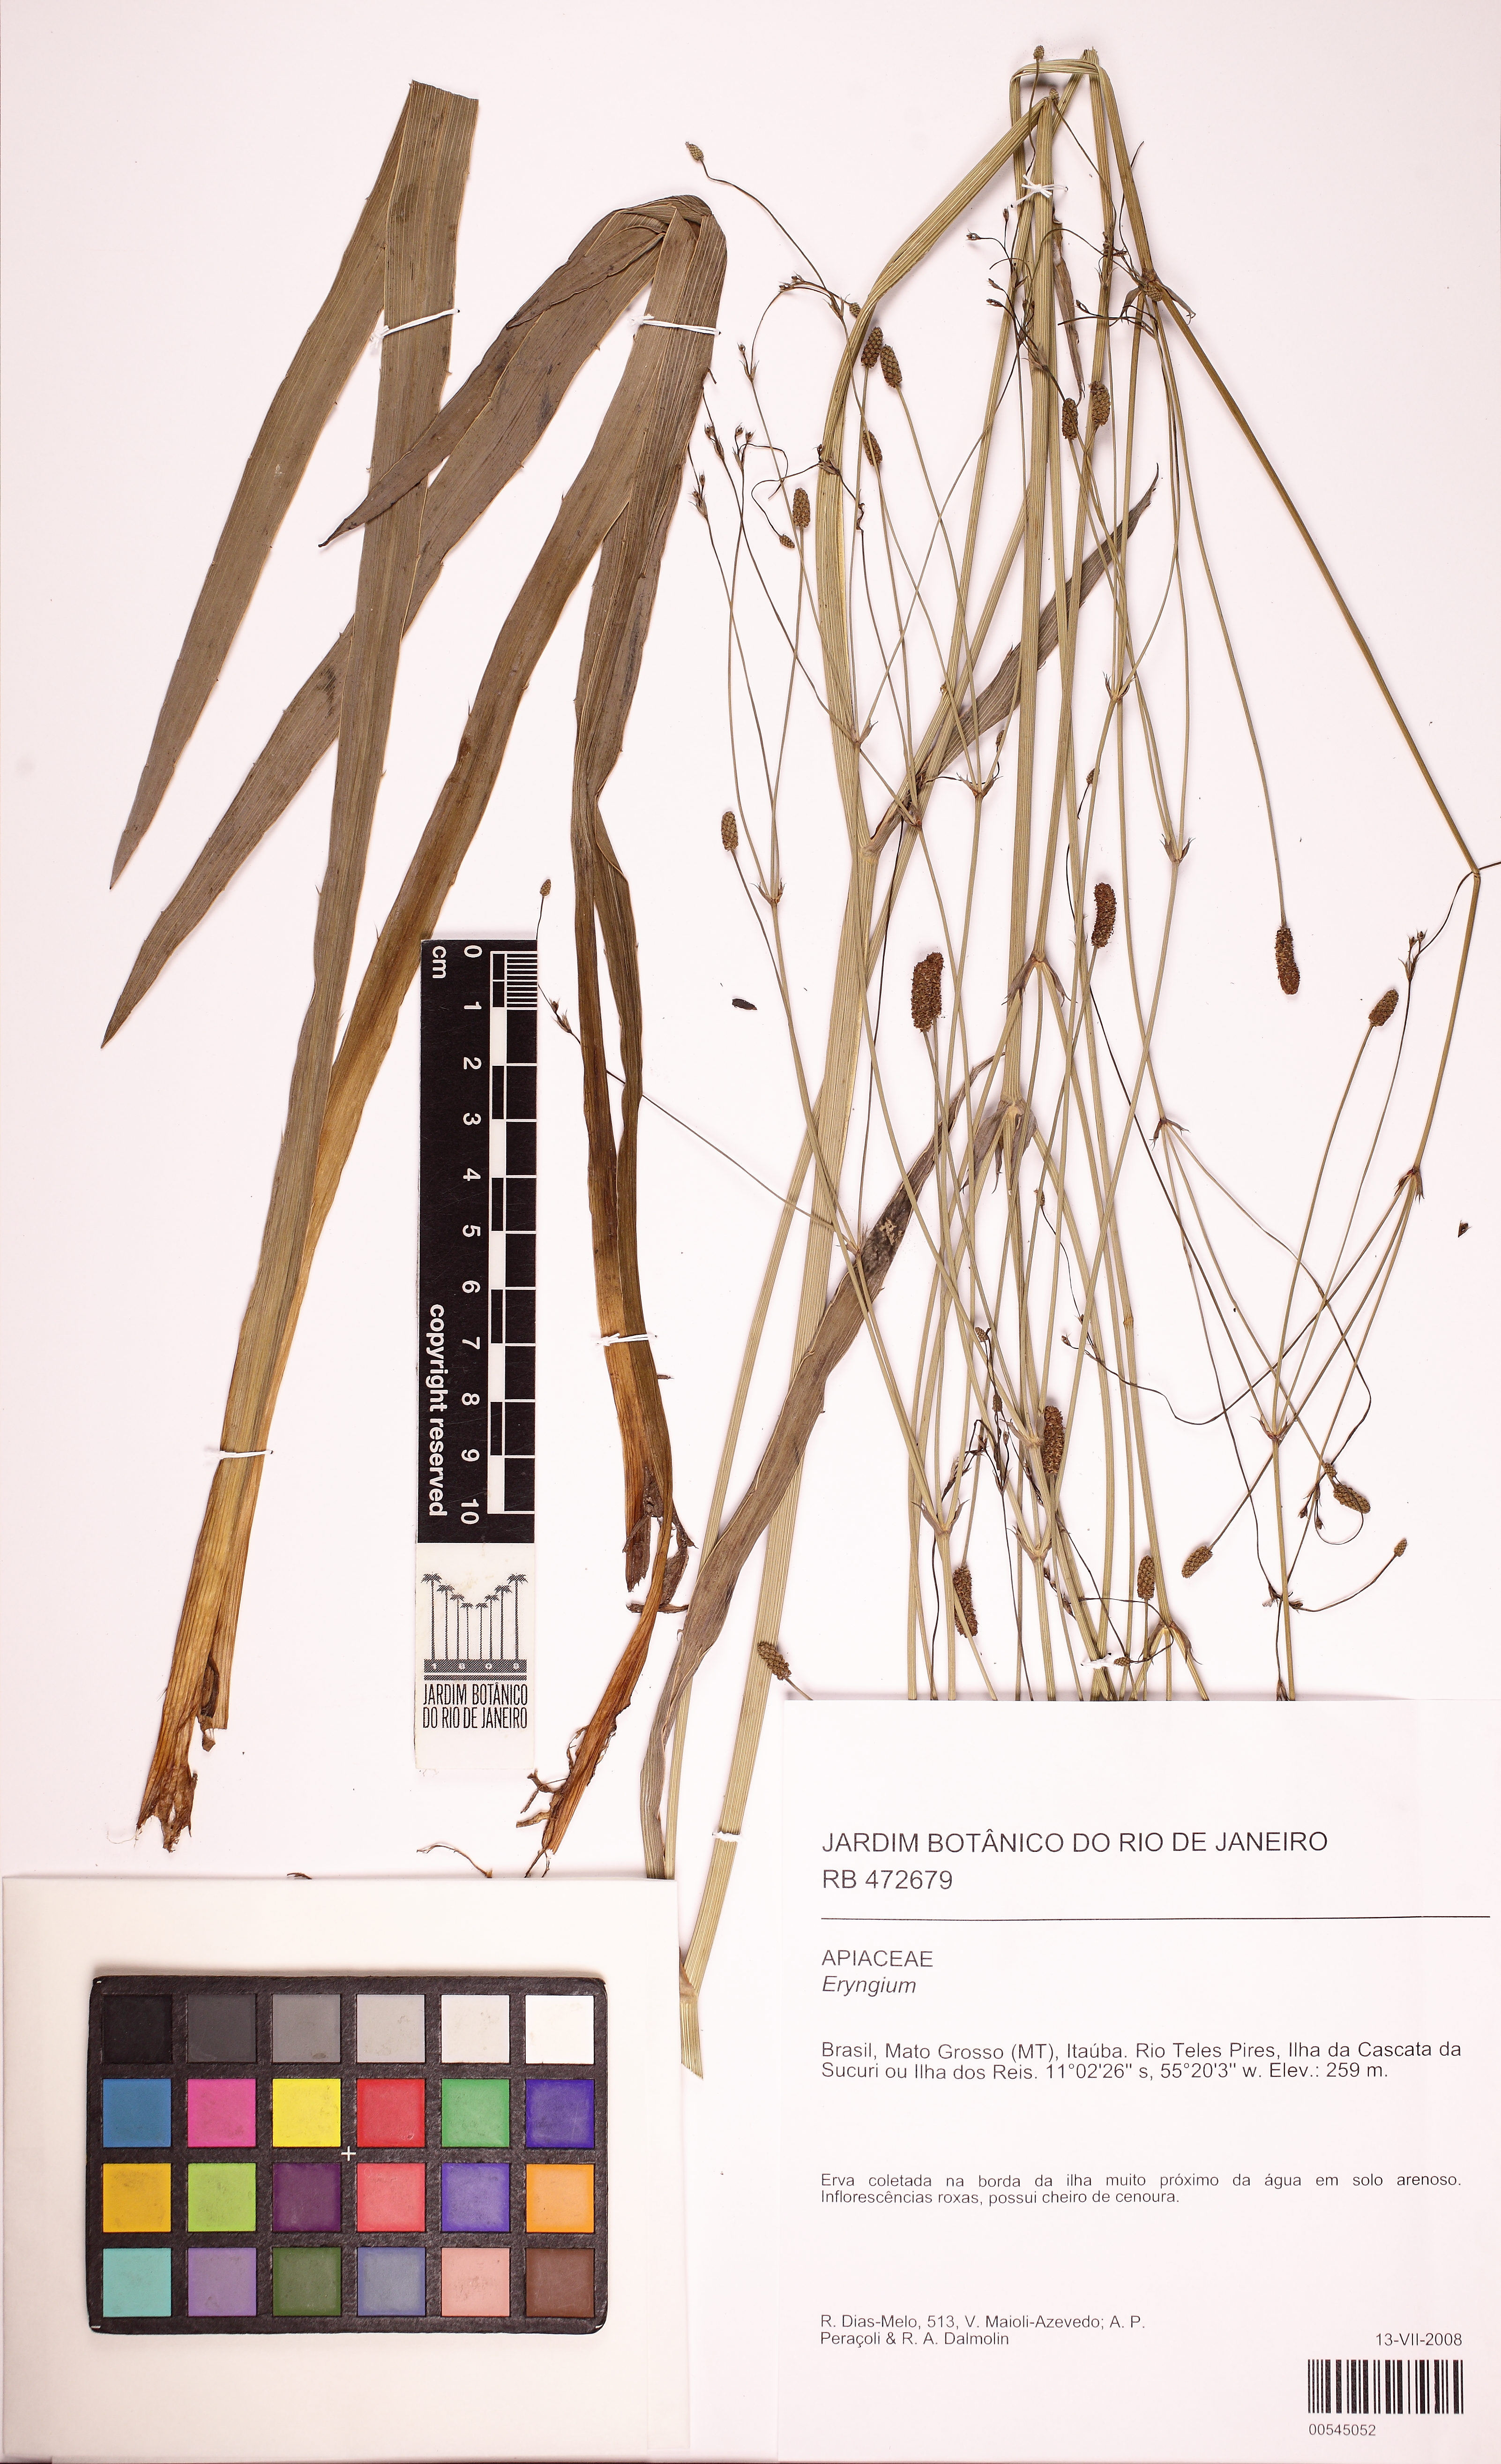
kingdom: Plantae
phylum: Tracheophyta
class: Magnoliopsida
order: Apiales
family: Apiaceae
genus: Eryngium
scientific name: Eryngium ebracteatum
